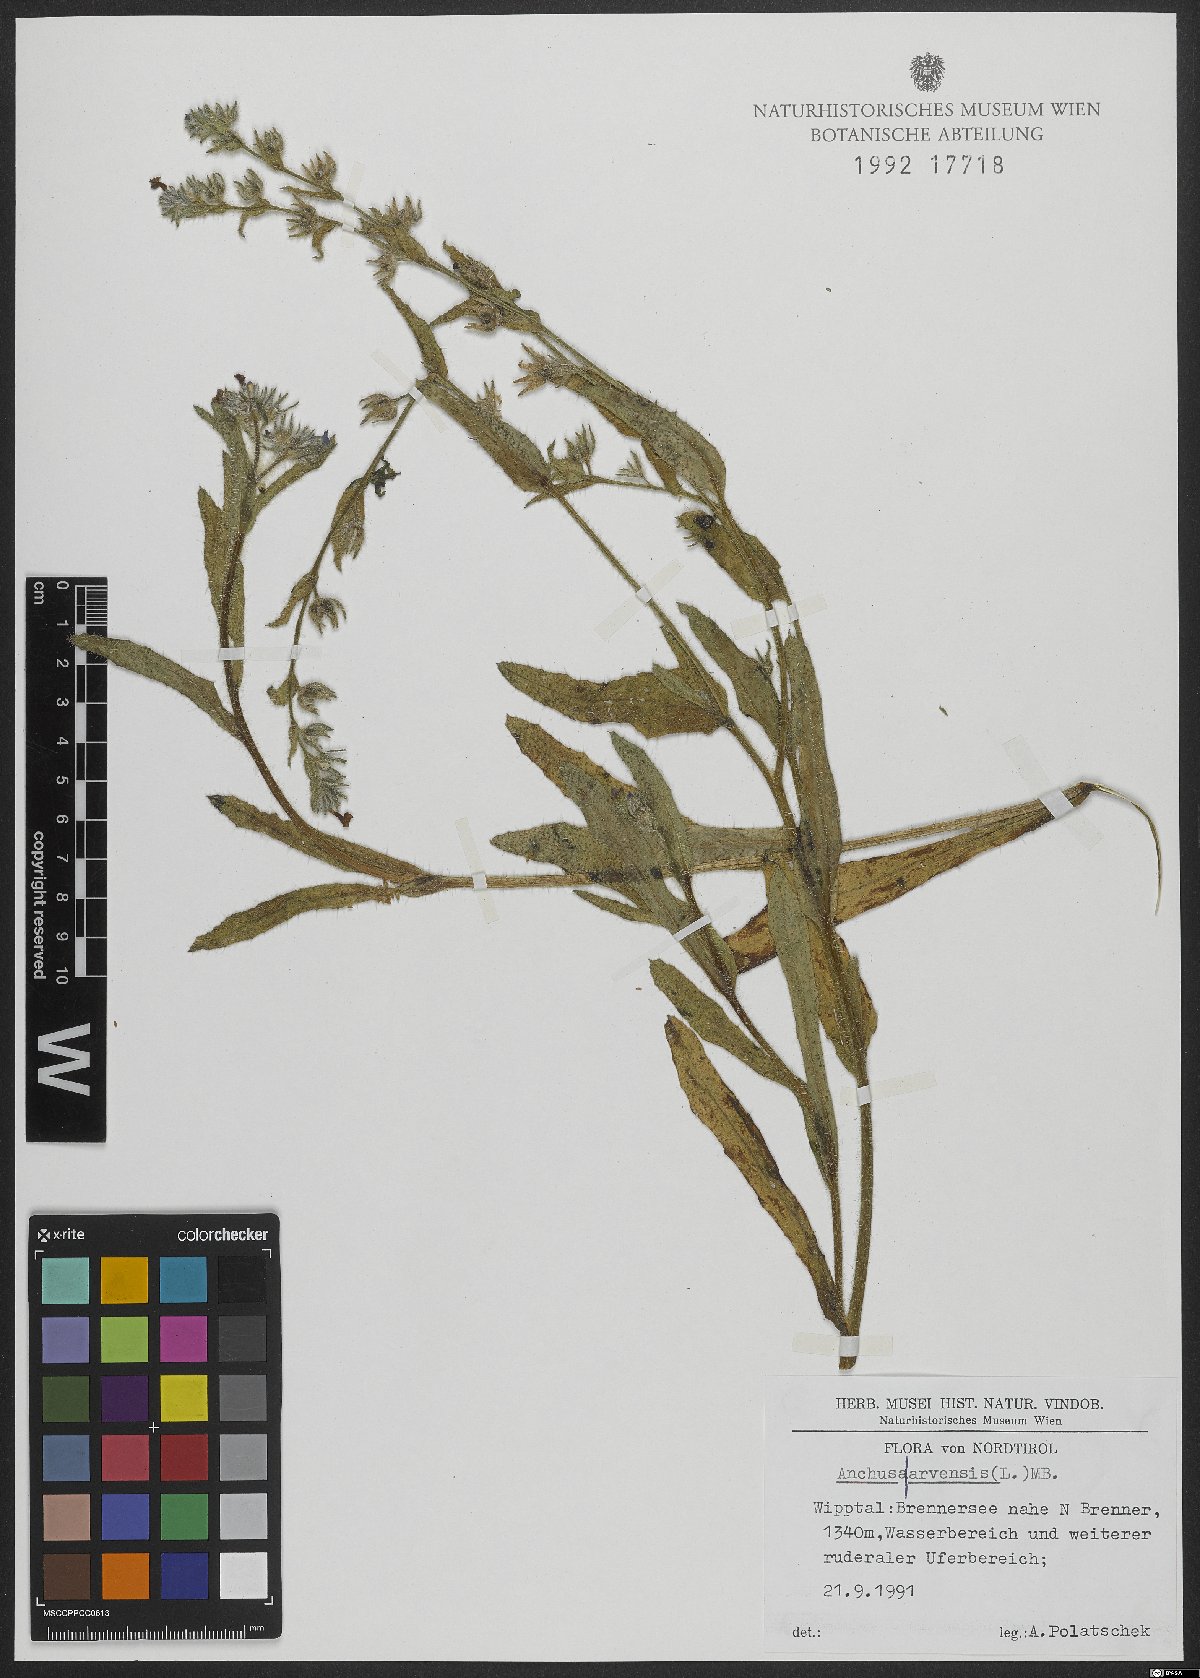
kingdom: Plantae
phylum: Tracheophyta
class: Magnoliopsida
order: Boraginales
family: Boraginaceae
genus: Lycopsis
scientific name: Lycopsis arvensis
